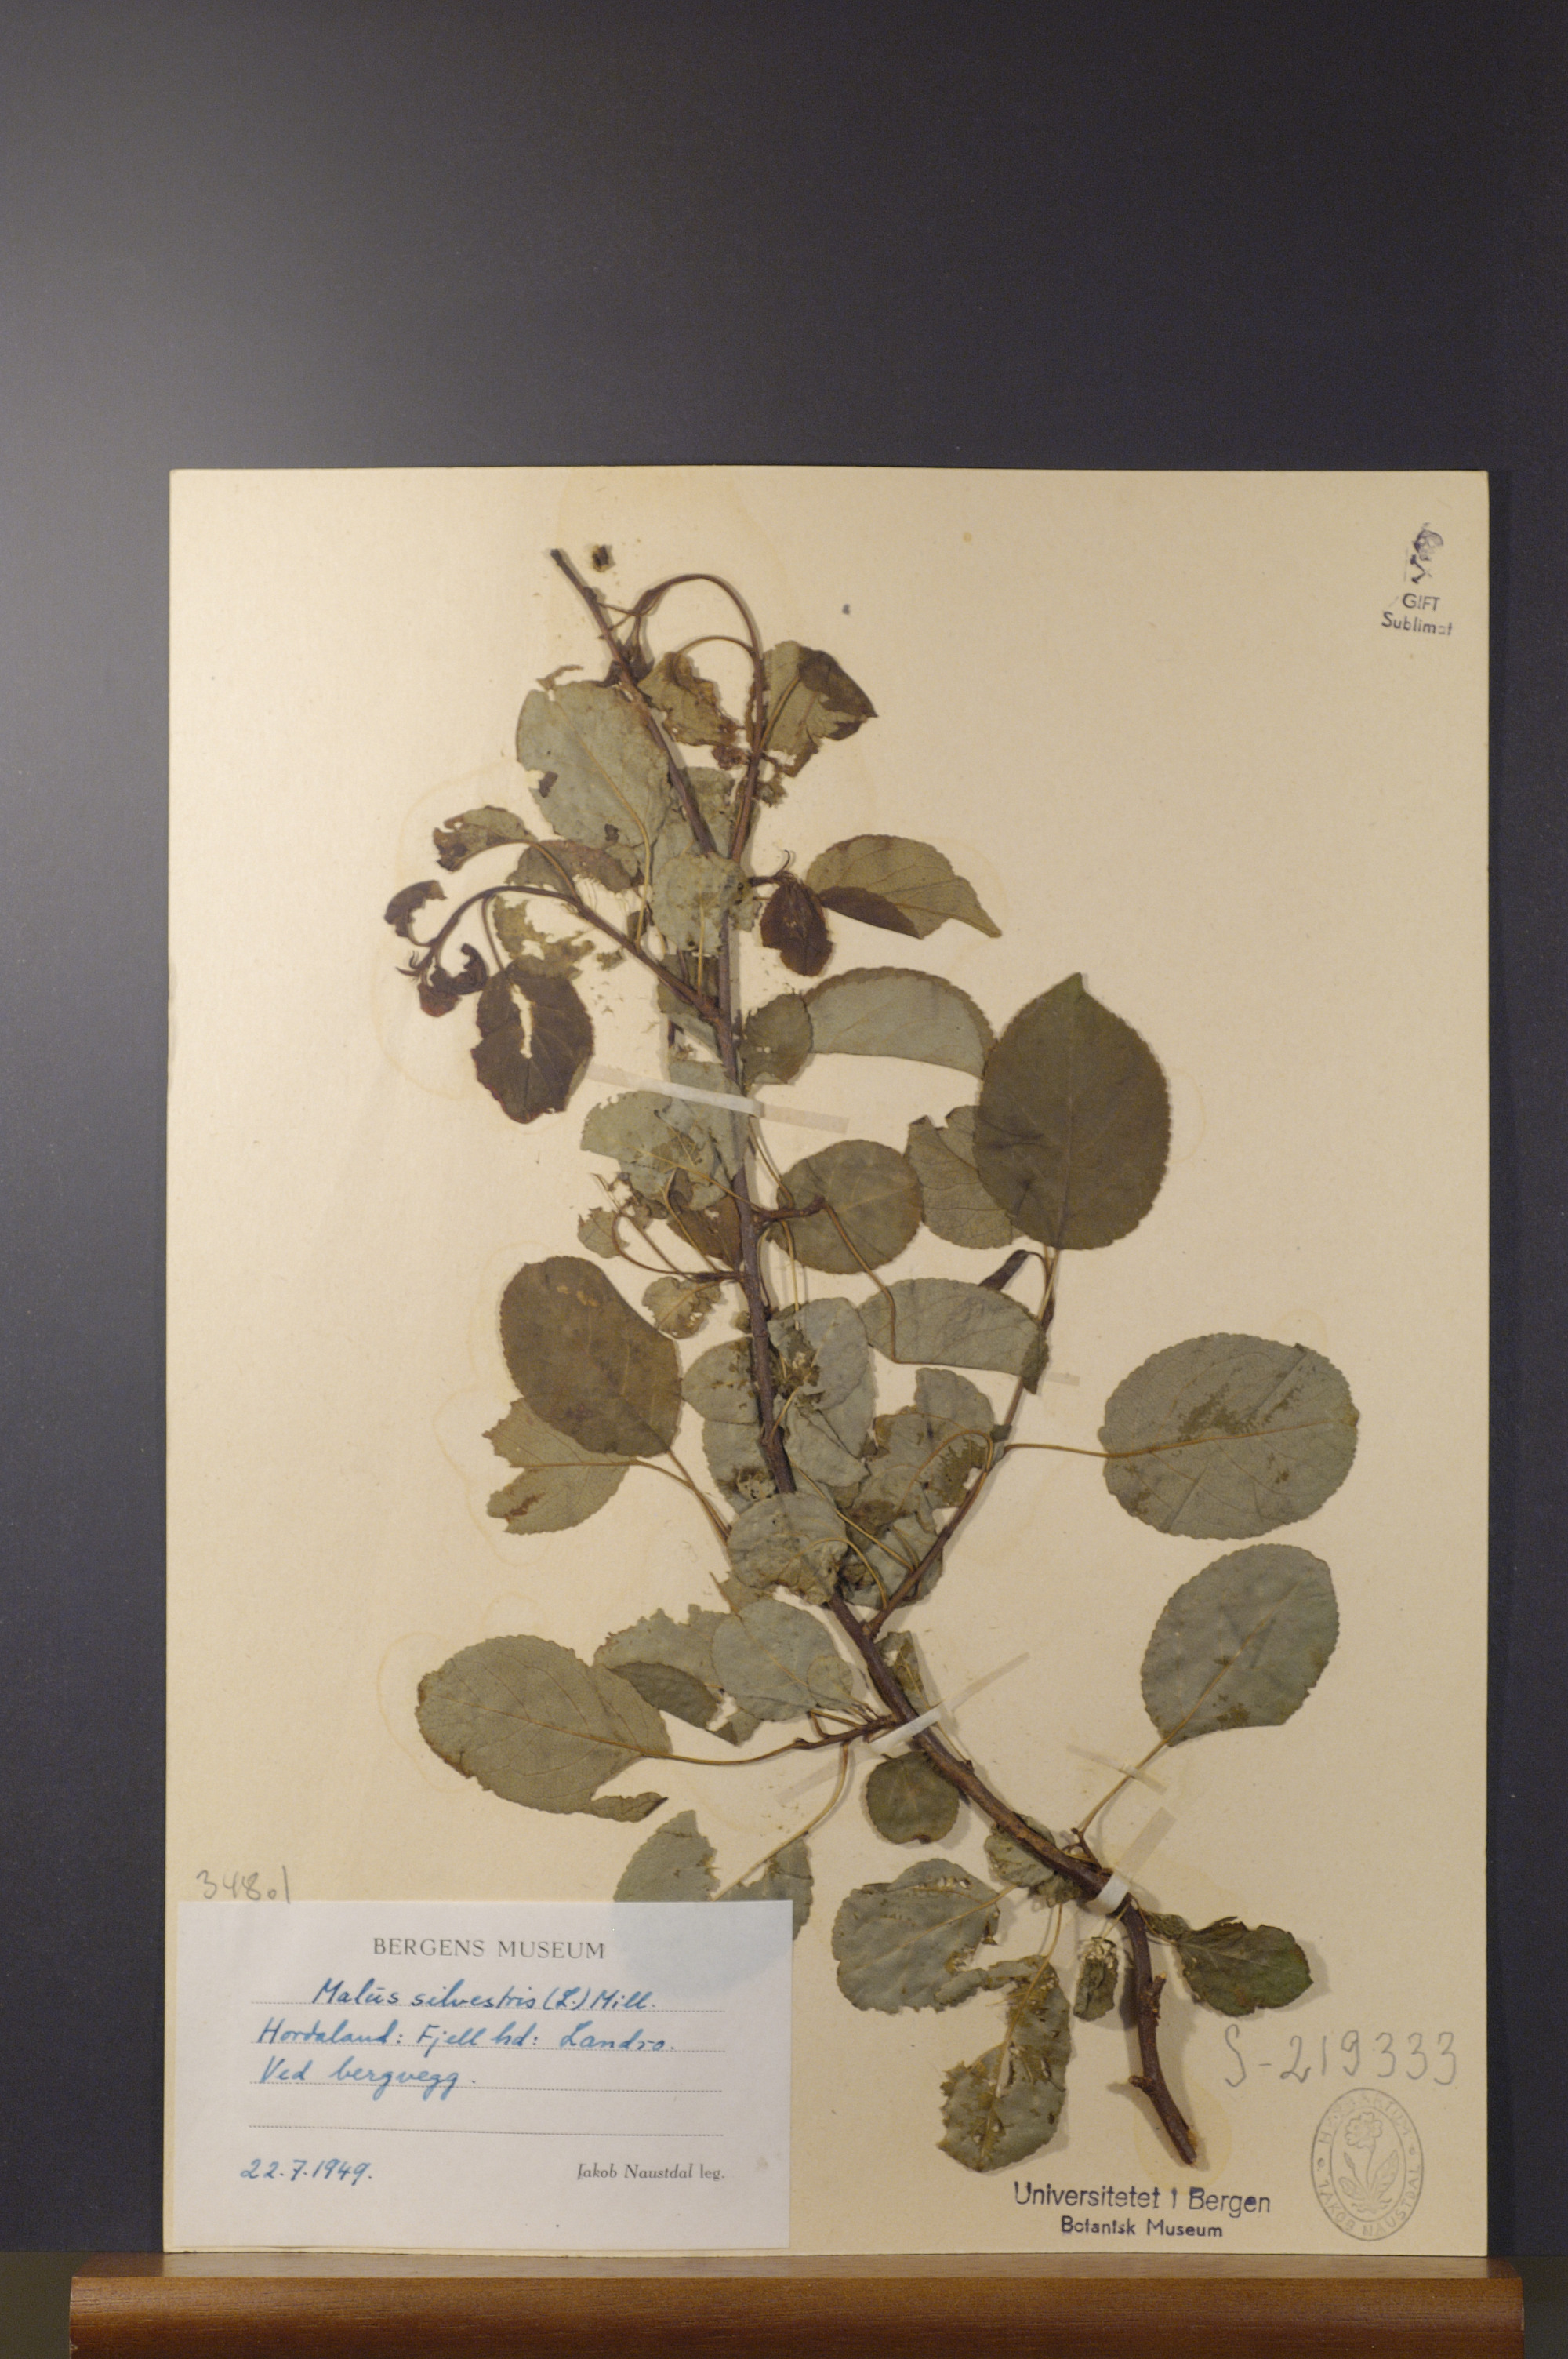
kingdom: Plantae
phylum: Tracheophyta
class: Magnoliopsida
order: Rosales
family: Rosaceae
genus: Malus
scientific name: Malus sylvestris
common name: Crab apple
